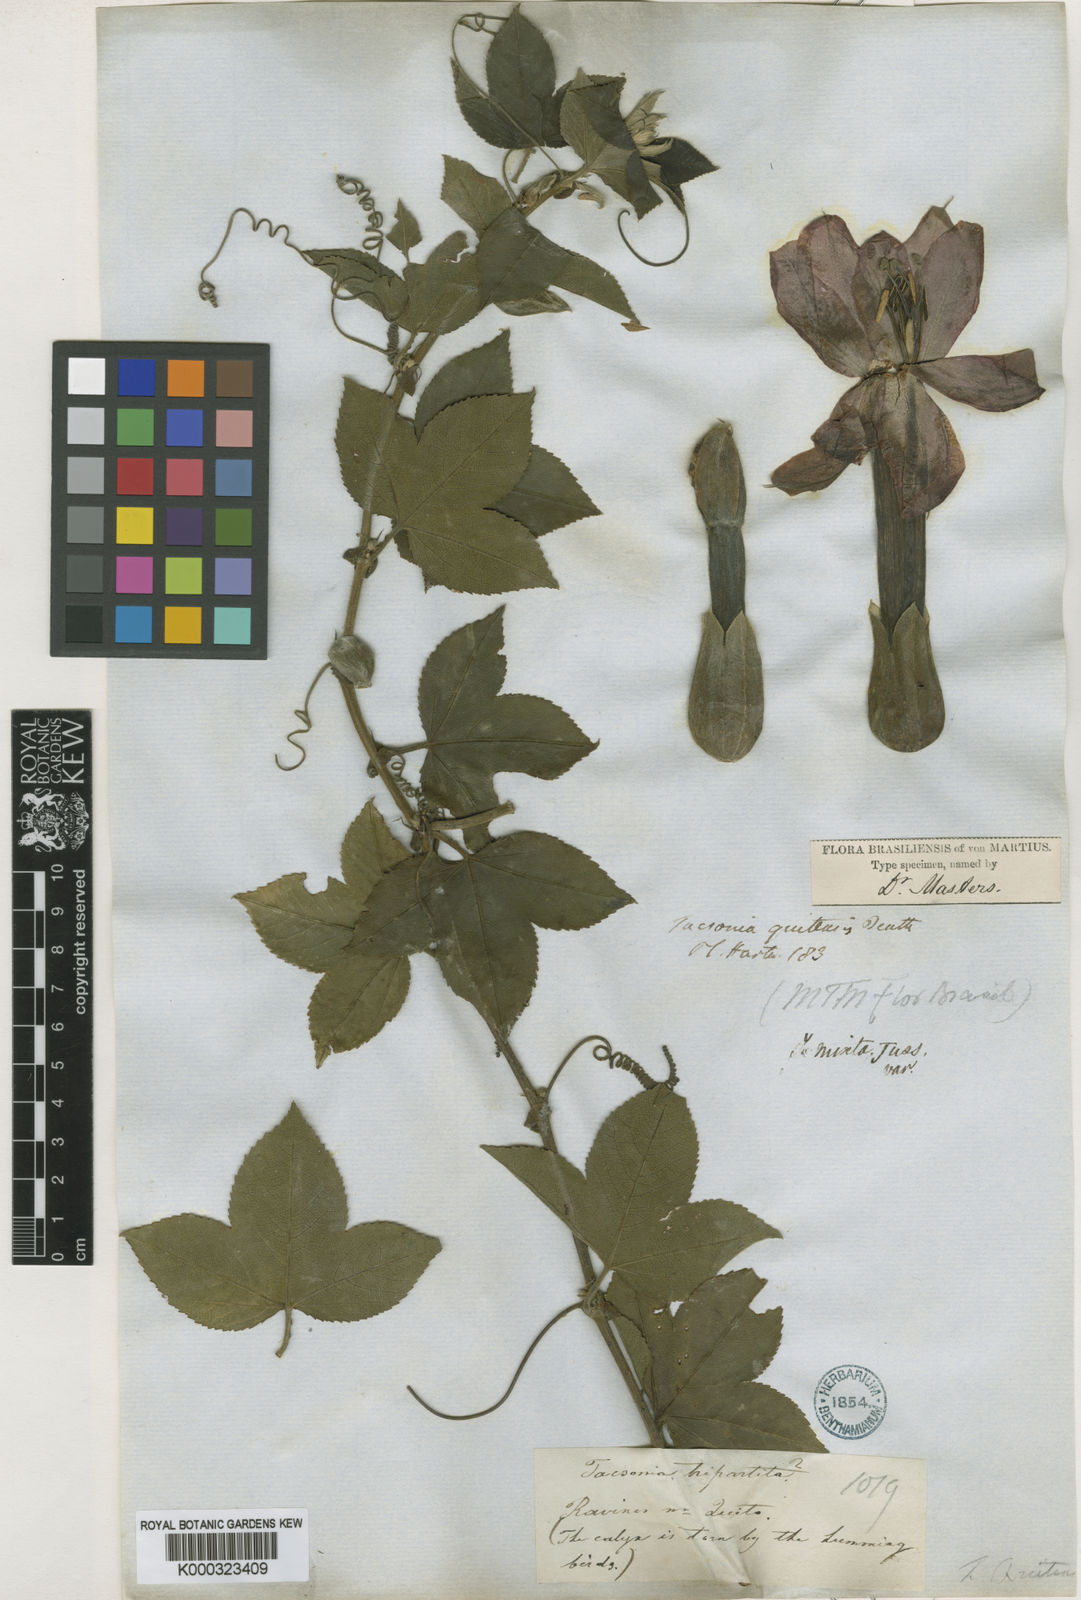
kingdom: Plantae
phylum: Tracheophyta
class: Magnoliopsida
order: Malpighiales
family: Passifloraceae
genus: Passiflora
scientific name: Passiflora mixta
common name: Passion flower
